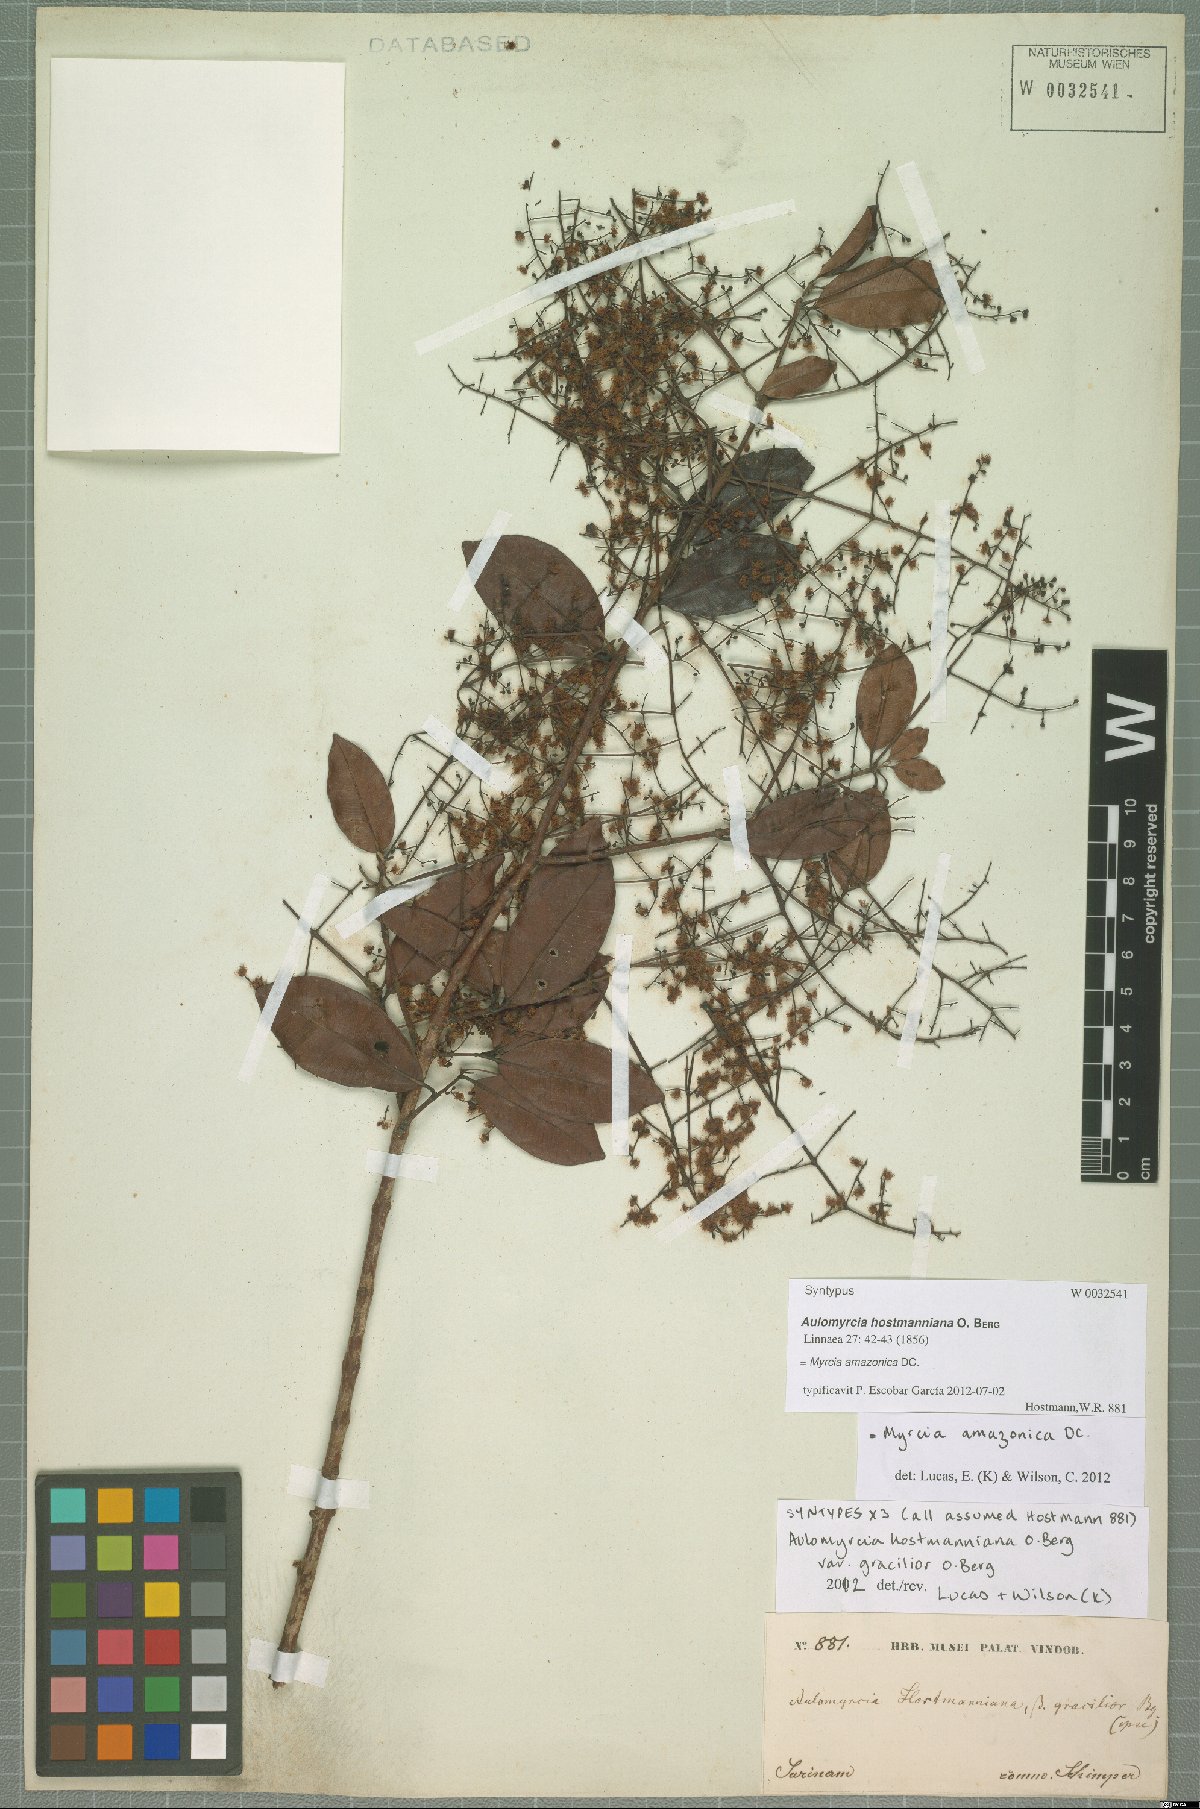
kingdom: Plantae
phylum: Tracheophyta
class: Magnoliopsida
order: Myrtales
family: Myrtaceae
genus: Myrcia
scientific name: Myrcia amazonica
